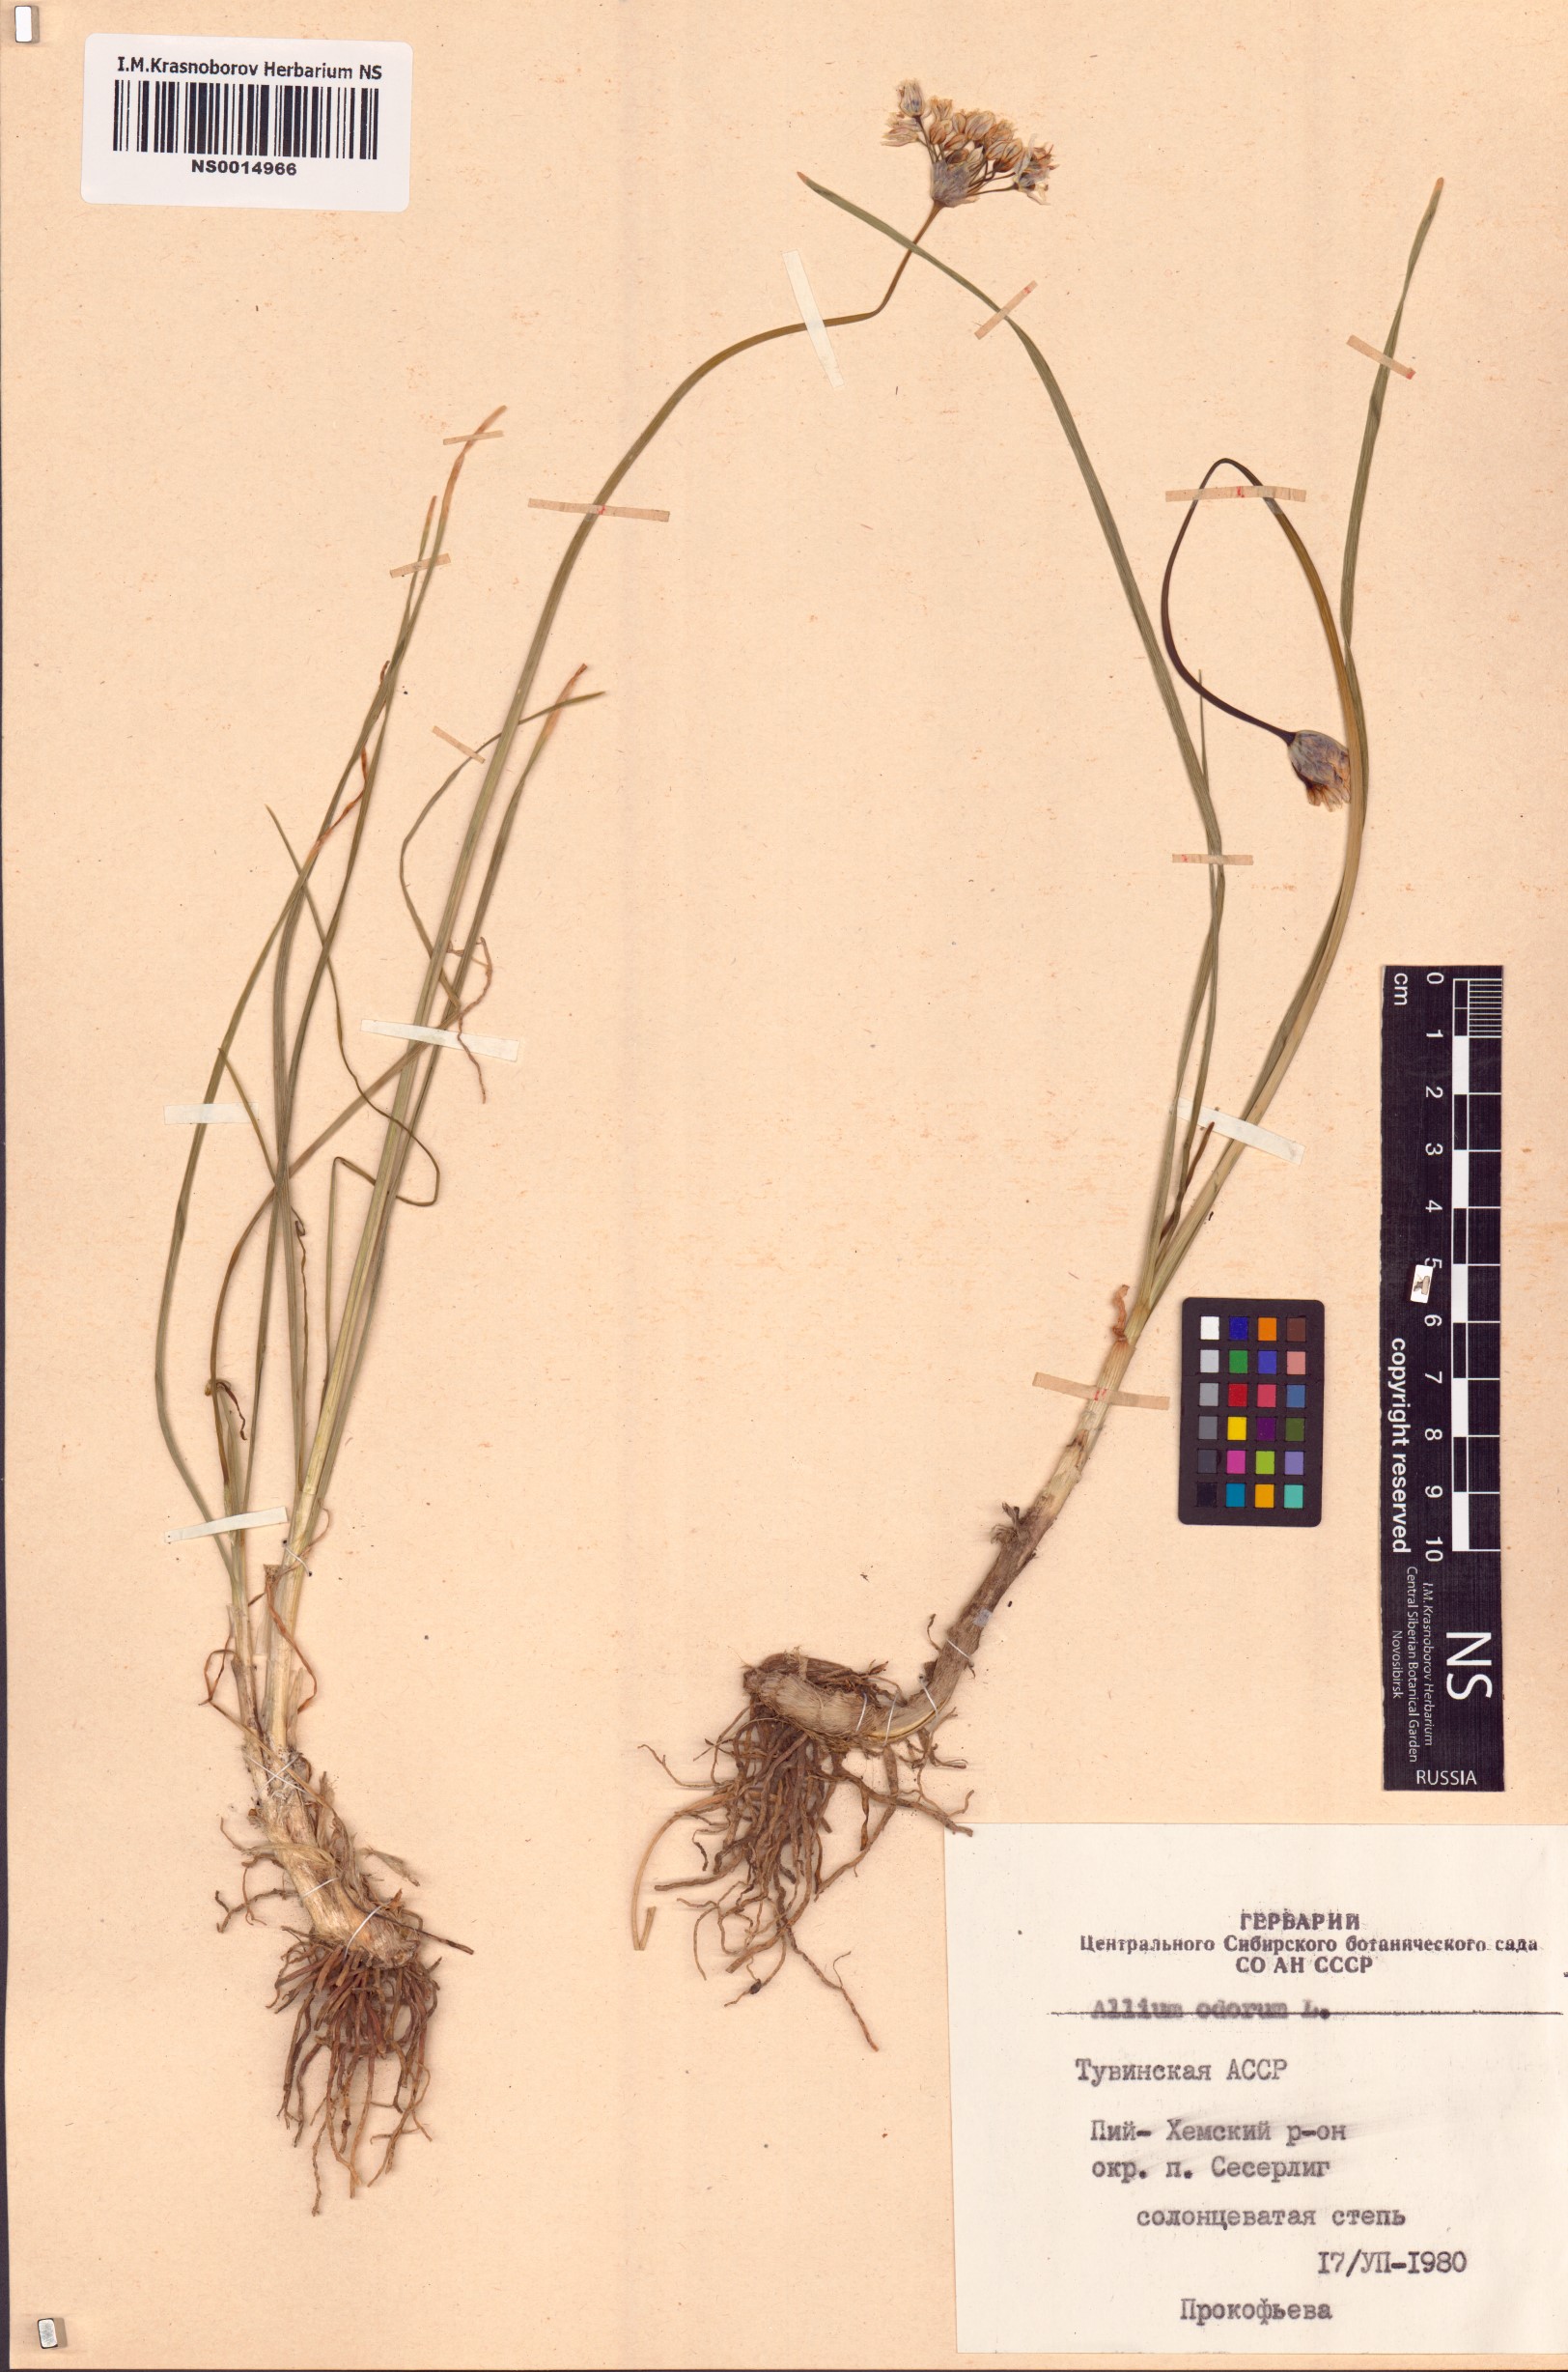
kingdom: Plantae
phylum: Tracheophyta
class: Liliopsida
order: Asparagales
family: Amaryllidaceae
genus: Allium
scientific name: Allium ramosum
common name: Fragrant garlic
